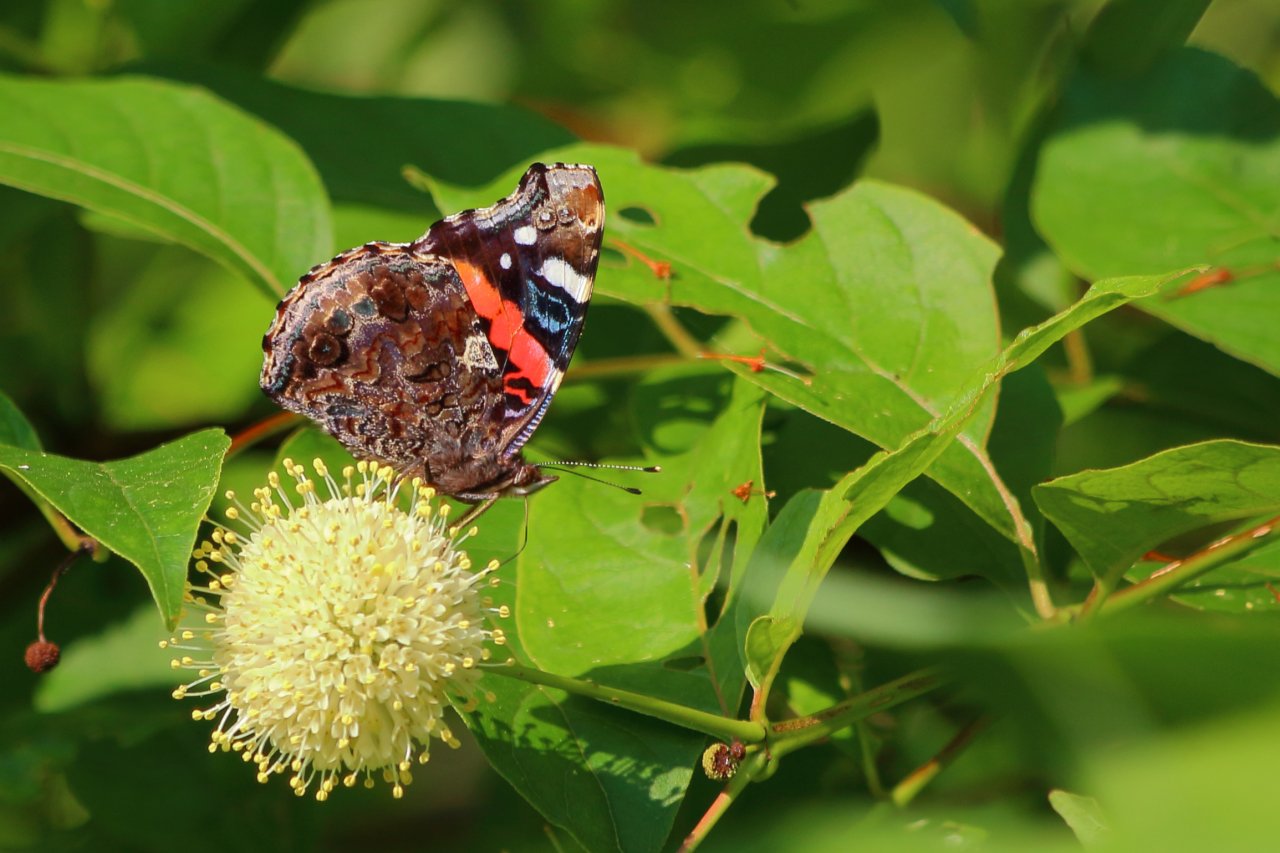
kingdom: Animalia
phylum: Arthropoda
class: Insecta
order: Lepidoptera
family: Nymphalidae
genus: Vanessa
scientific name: Vanessa atalanta
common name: Red Admiral
